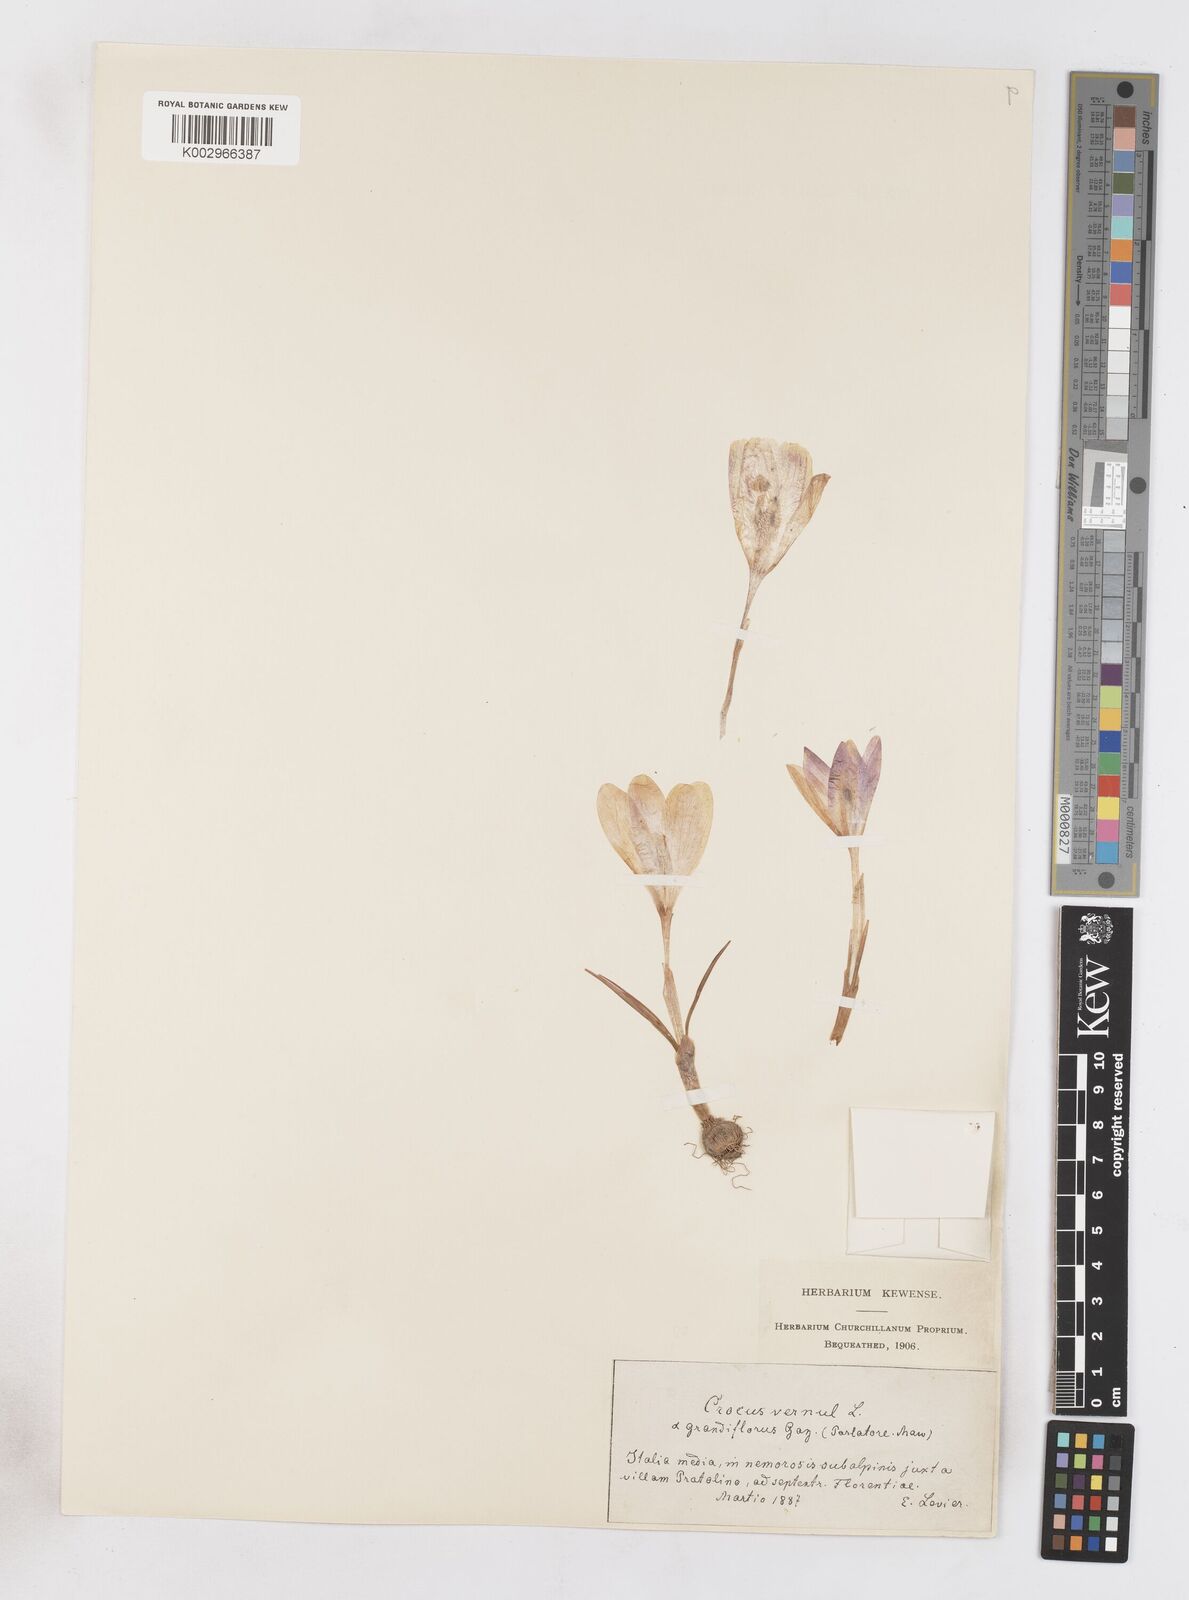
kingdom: Plantae
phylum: Tracheophyta
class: Liliopsida
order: Asparagales
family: Iridaceae
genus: Crocus
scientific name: Crocus vernus
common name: Spring crocus
